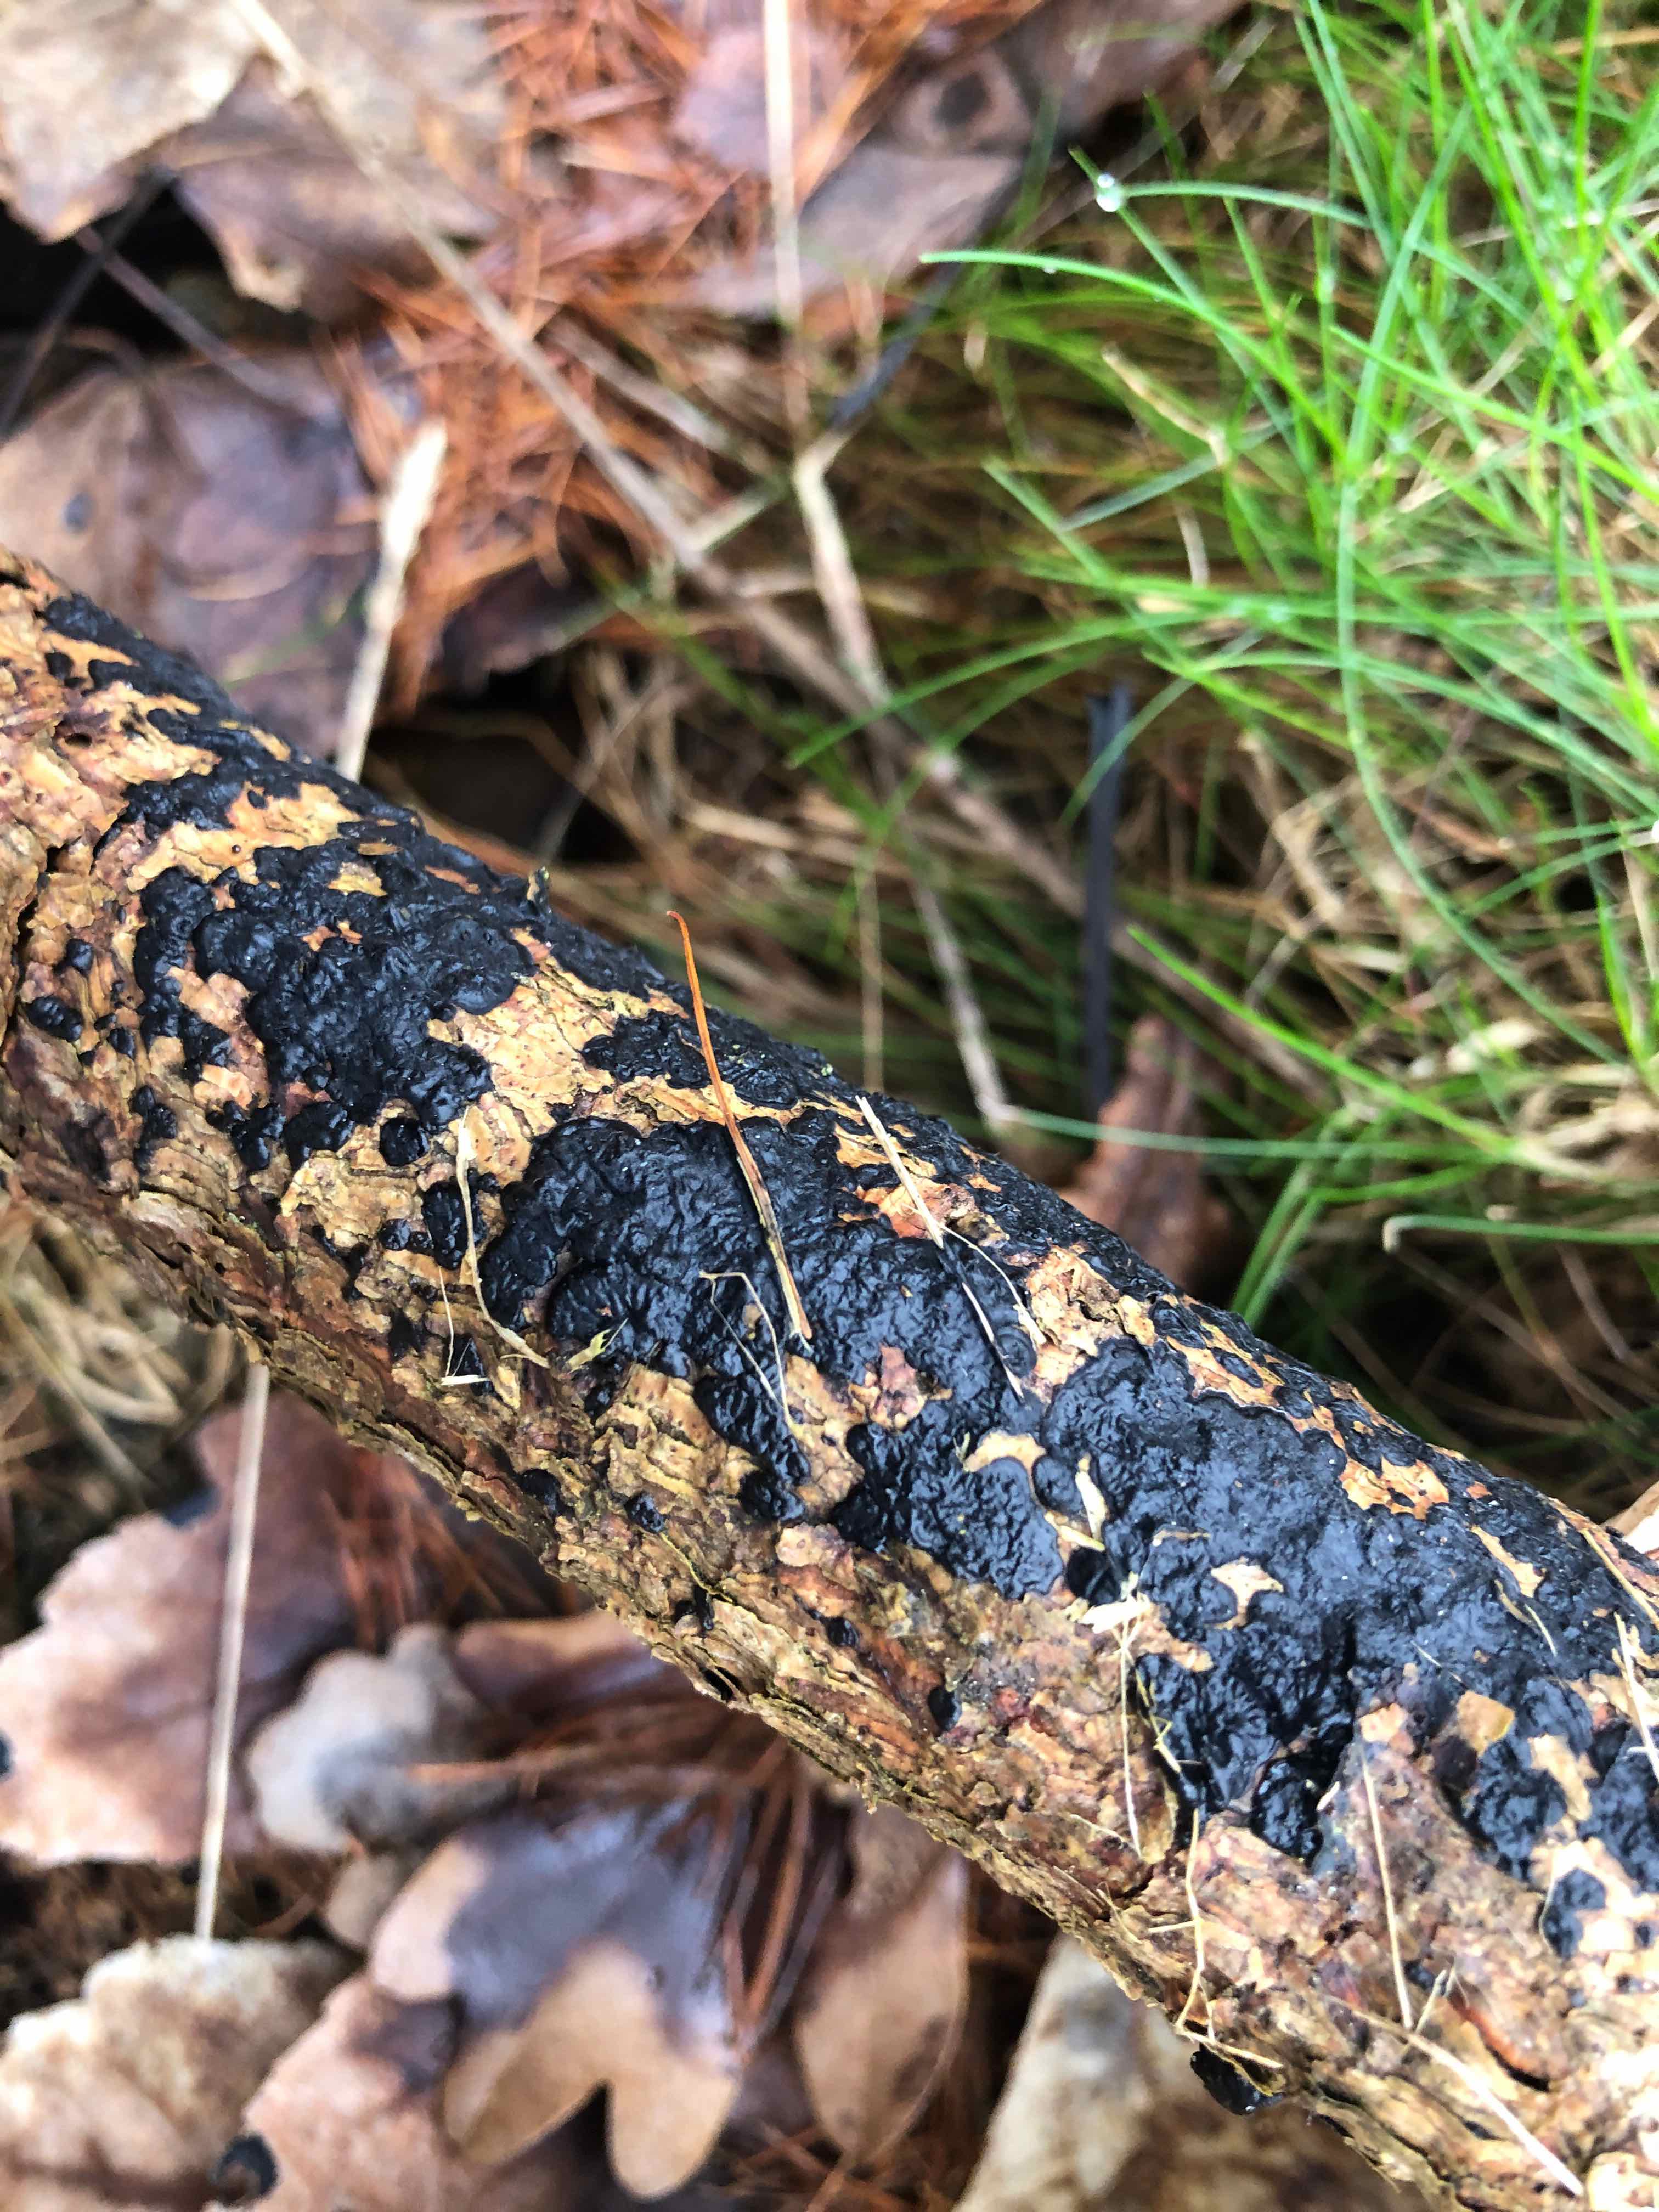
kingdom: Fungi
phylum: Basidiomycota
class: Agaricomycetes
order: Auriculariales
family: Auriculariaceae
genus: Exidia
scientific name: Exidia pithya
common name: gran-bævretop
